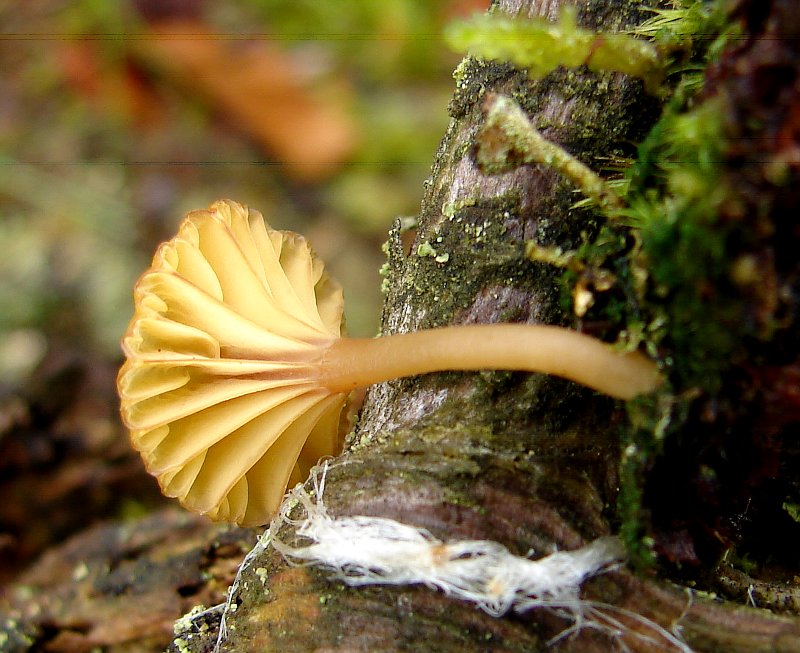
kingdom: Fungi
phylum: Basidiomycota
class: Agaricomycetes
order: Agaricales
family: Hygrophoraceae
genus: Lichenomphalia
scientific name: Lichenomphalia umbellifera
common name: tørve-lavhat
